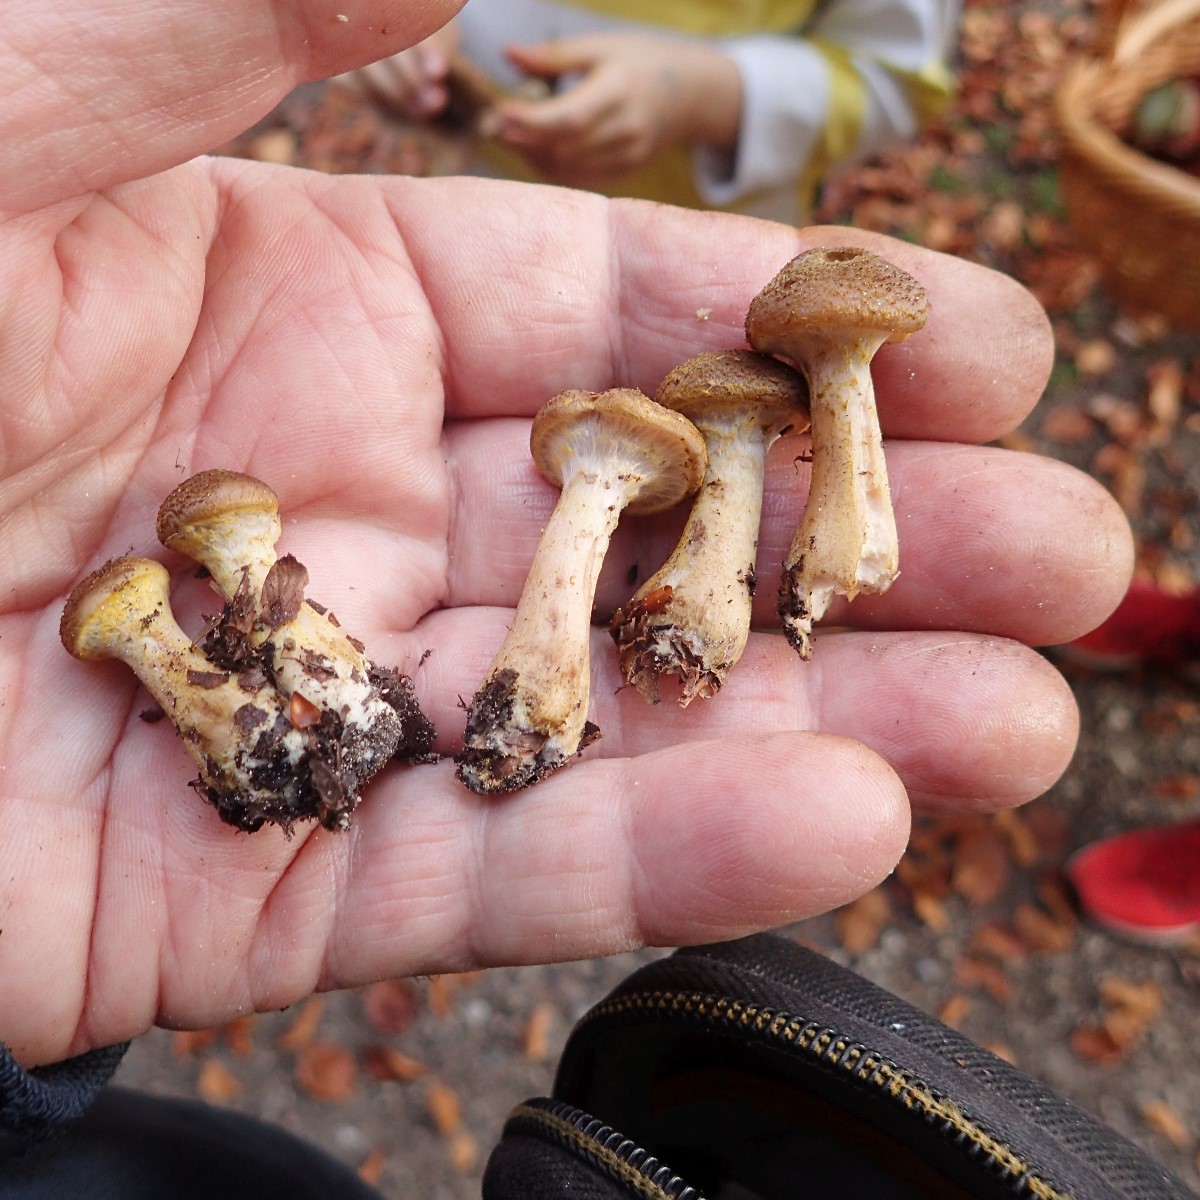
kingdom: Fungi
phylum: Basidiomycota
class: Agaricomycetes
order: Agaricales
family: Physalacriaceae
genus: Armillaria
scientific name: Armillaria lutea
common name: køllestokket honningsvamp
